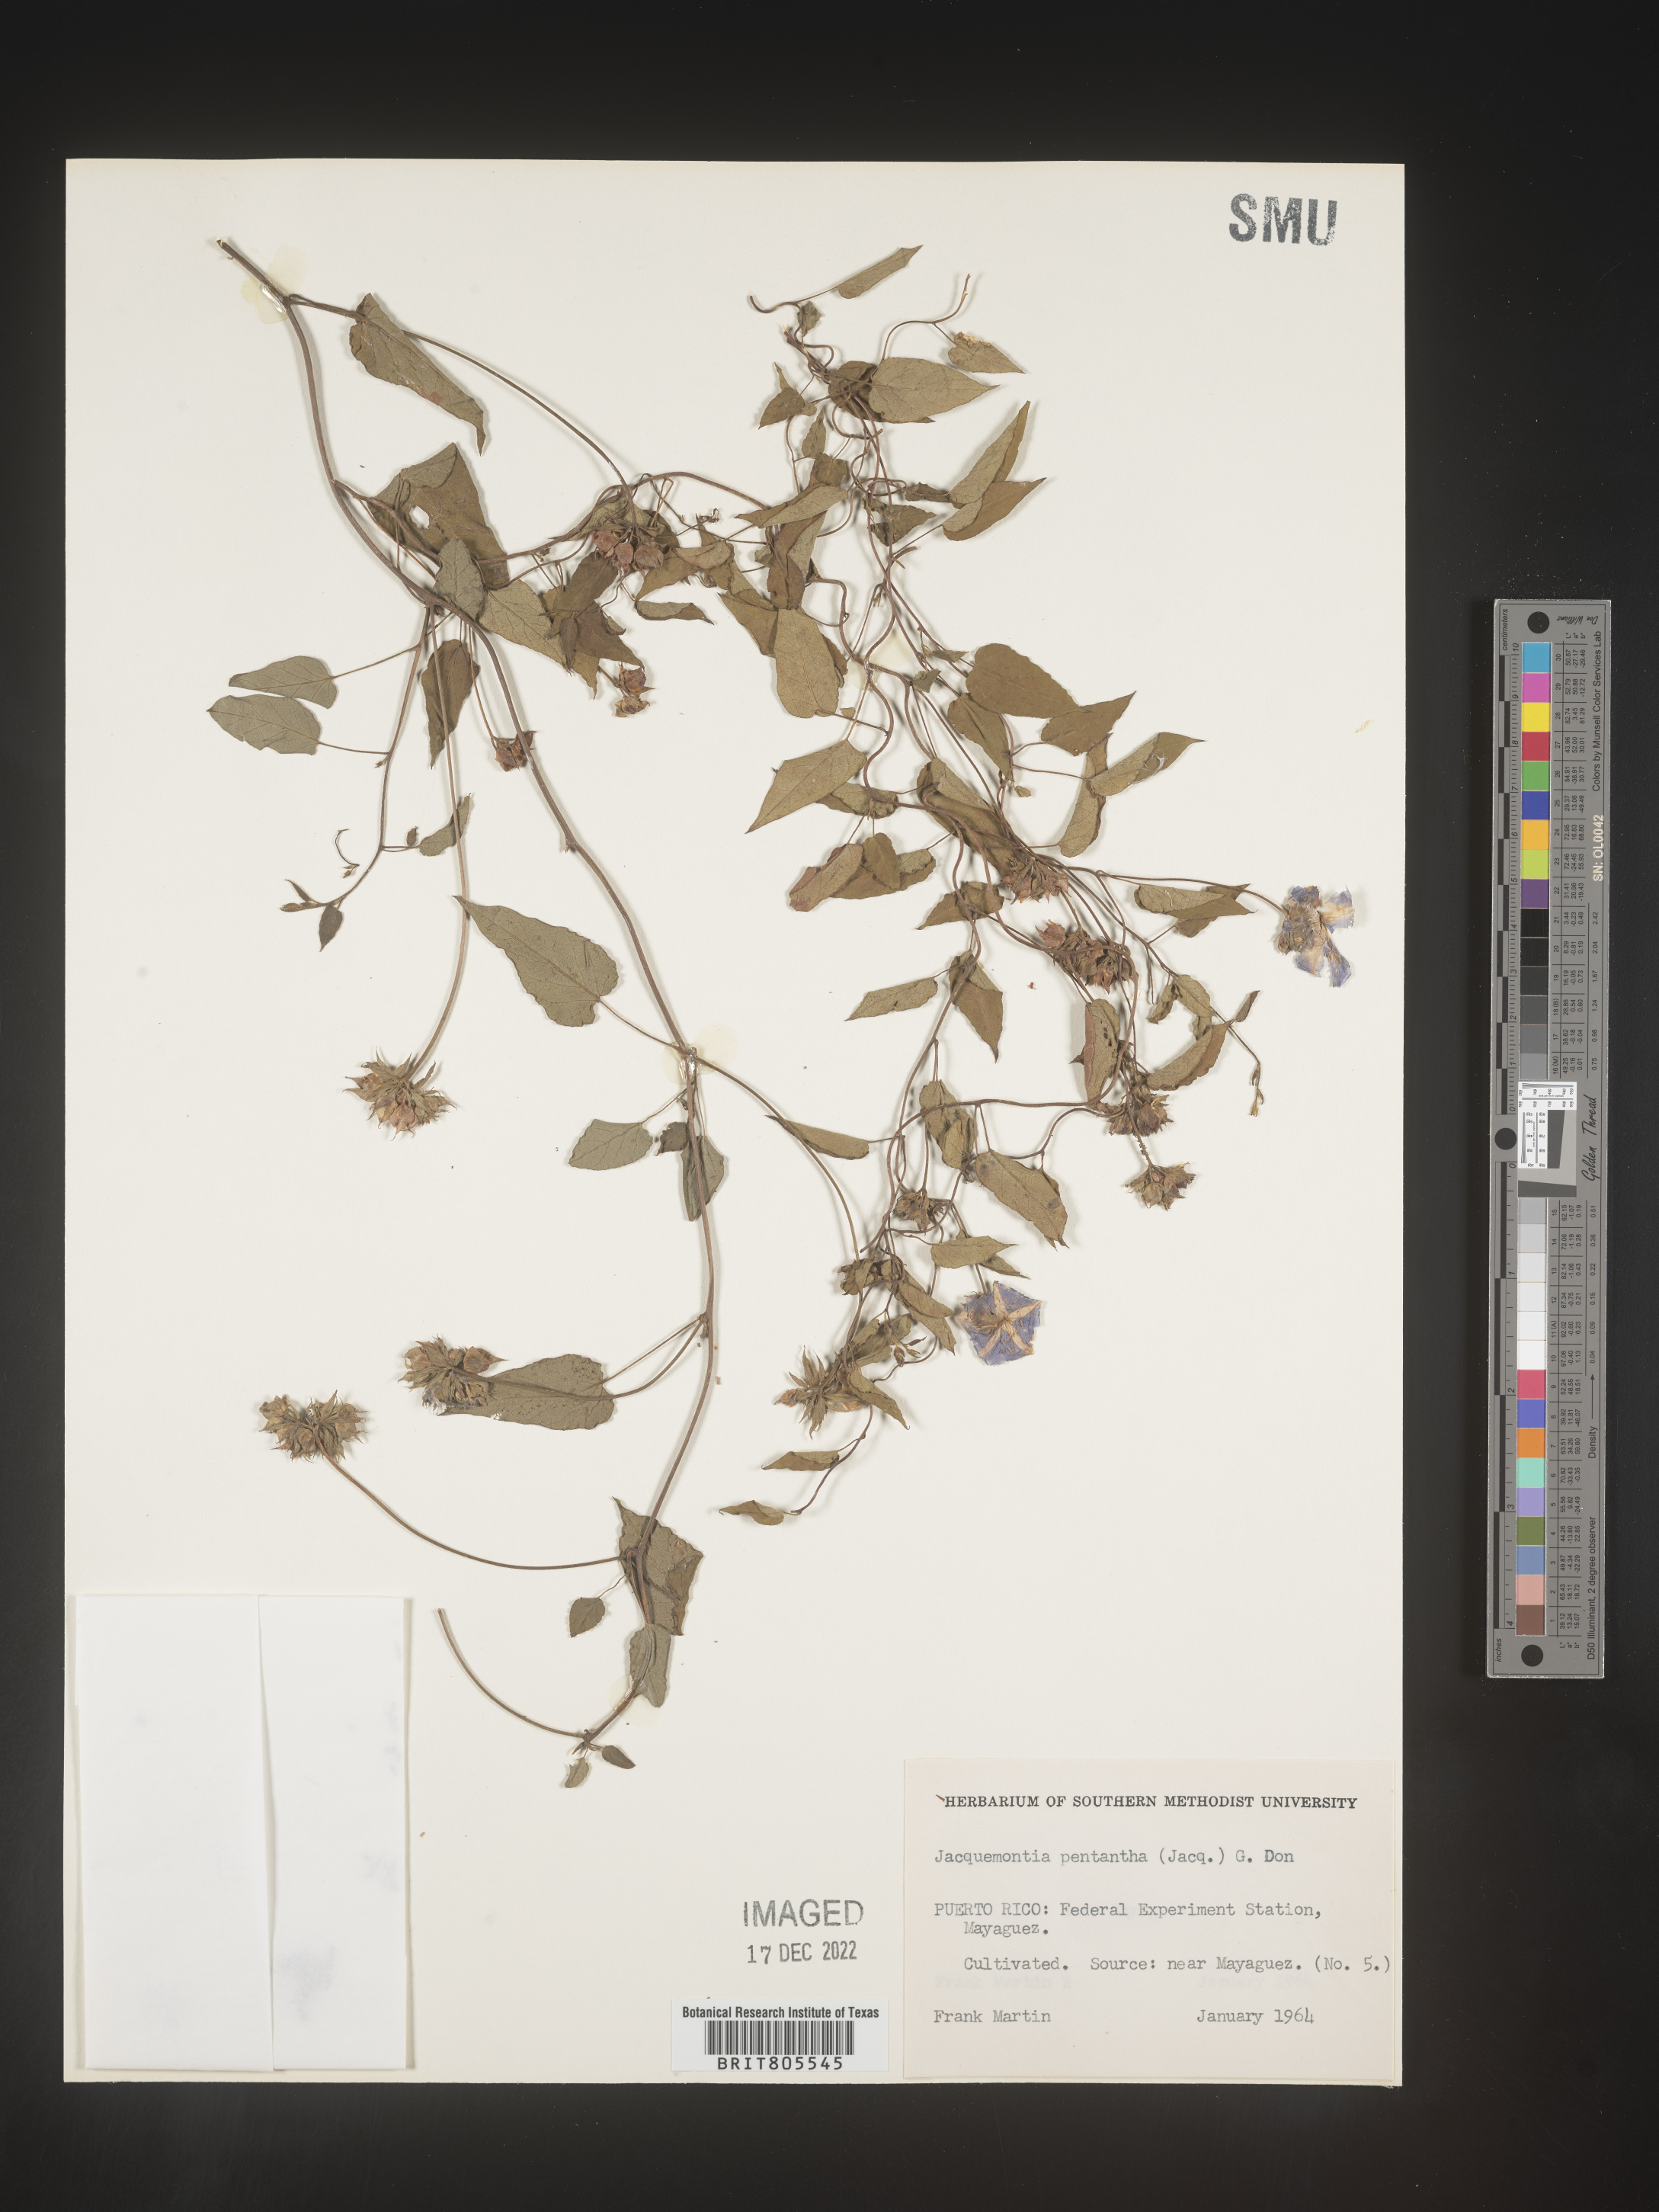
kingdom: Plantae
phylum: Tracheophyta
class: Magnoliopsida
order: Solanales
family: Convolvulaceae
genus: Jacquemontia
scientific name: Jacquemontia
